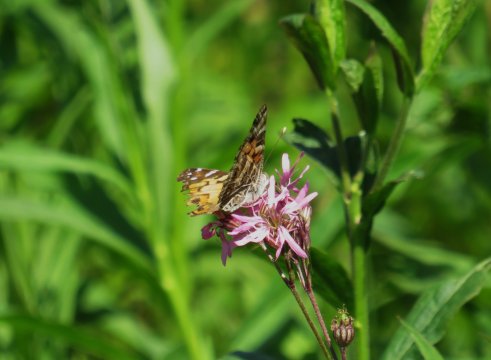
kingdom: Animalia
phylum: Arthropoda
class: Insecta
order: Lepidoptera
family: Nymphalidae
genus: Vanessa
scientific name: Vanessa virginiensis
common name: American Lady
